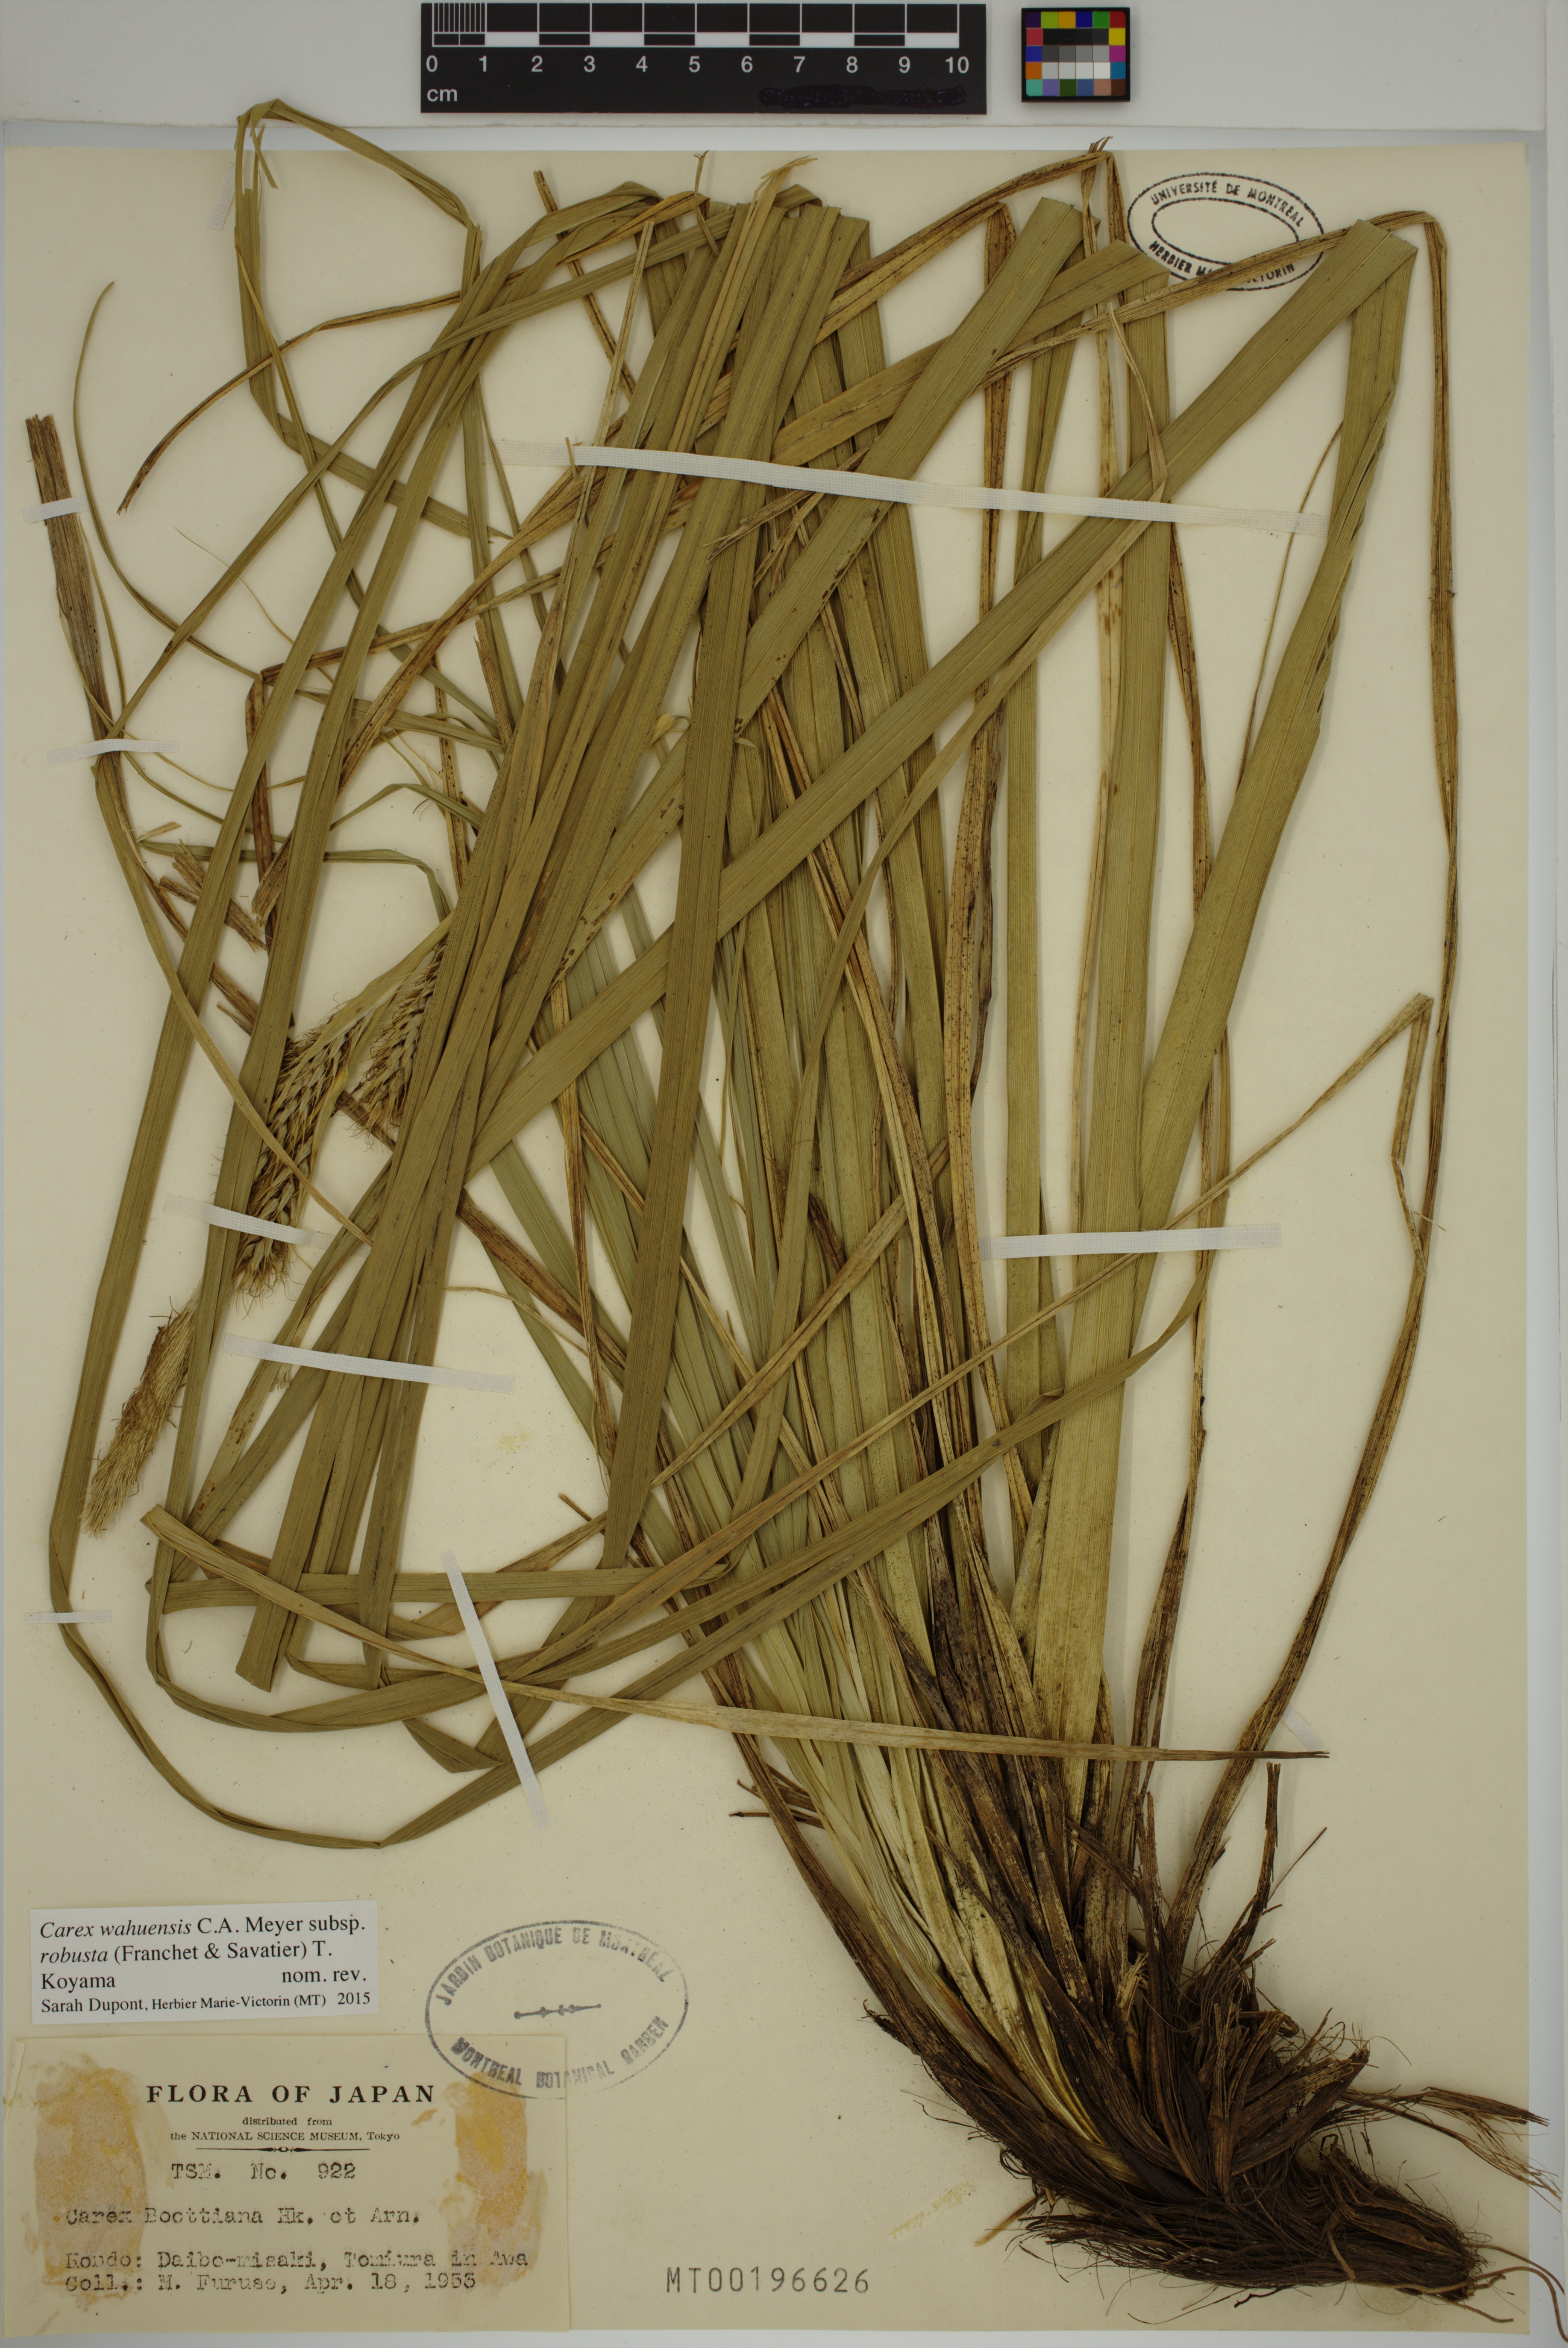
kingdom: Plantae
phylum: Tracheophyta
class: Liliopsida
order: Poales
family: Cyperaceae
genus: Carex
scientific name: Carex wahuensis
